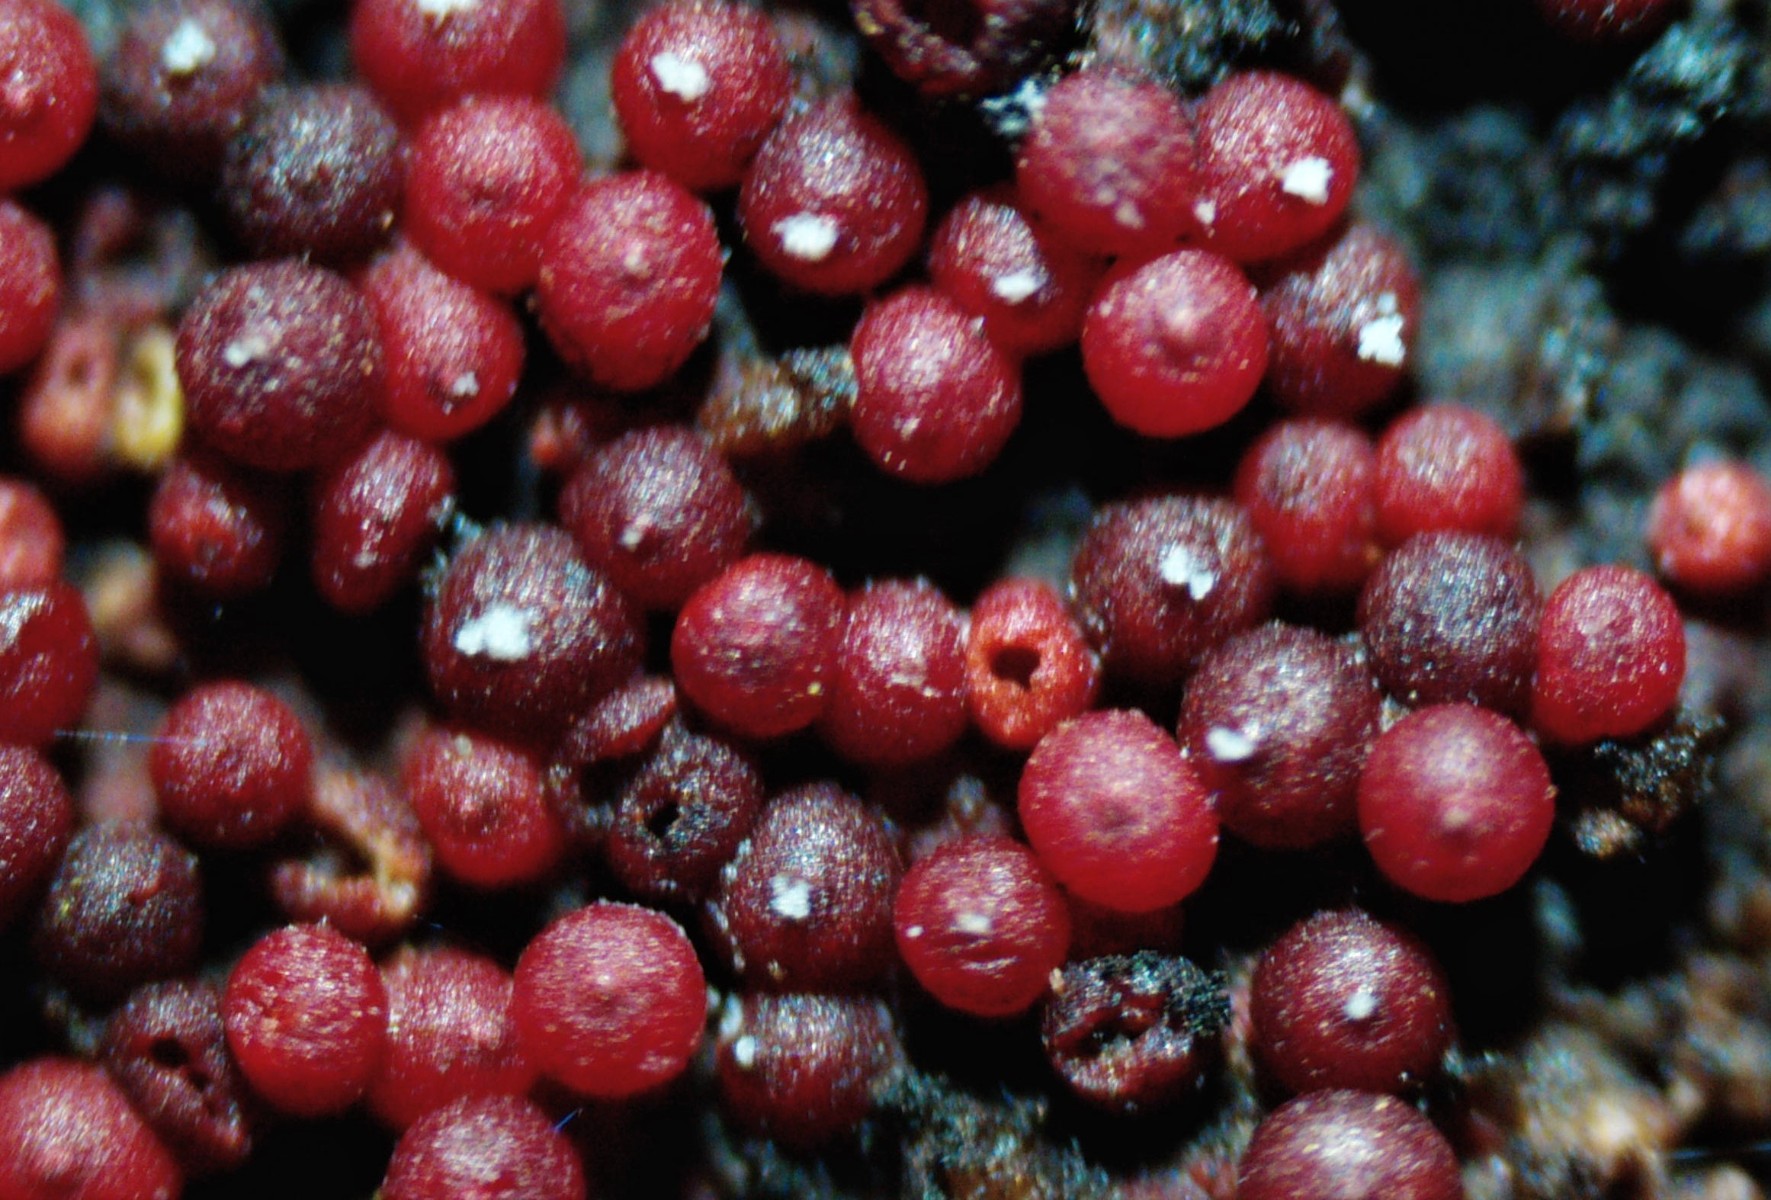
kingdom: Fungi
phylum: Ascomycota
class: Sordariomycetes
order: Hypocreales
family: Nectriaceae
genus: Corinectria
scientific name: Corinectria fuckeliana
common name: grankræft-cinnobersvamp
